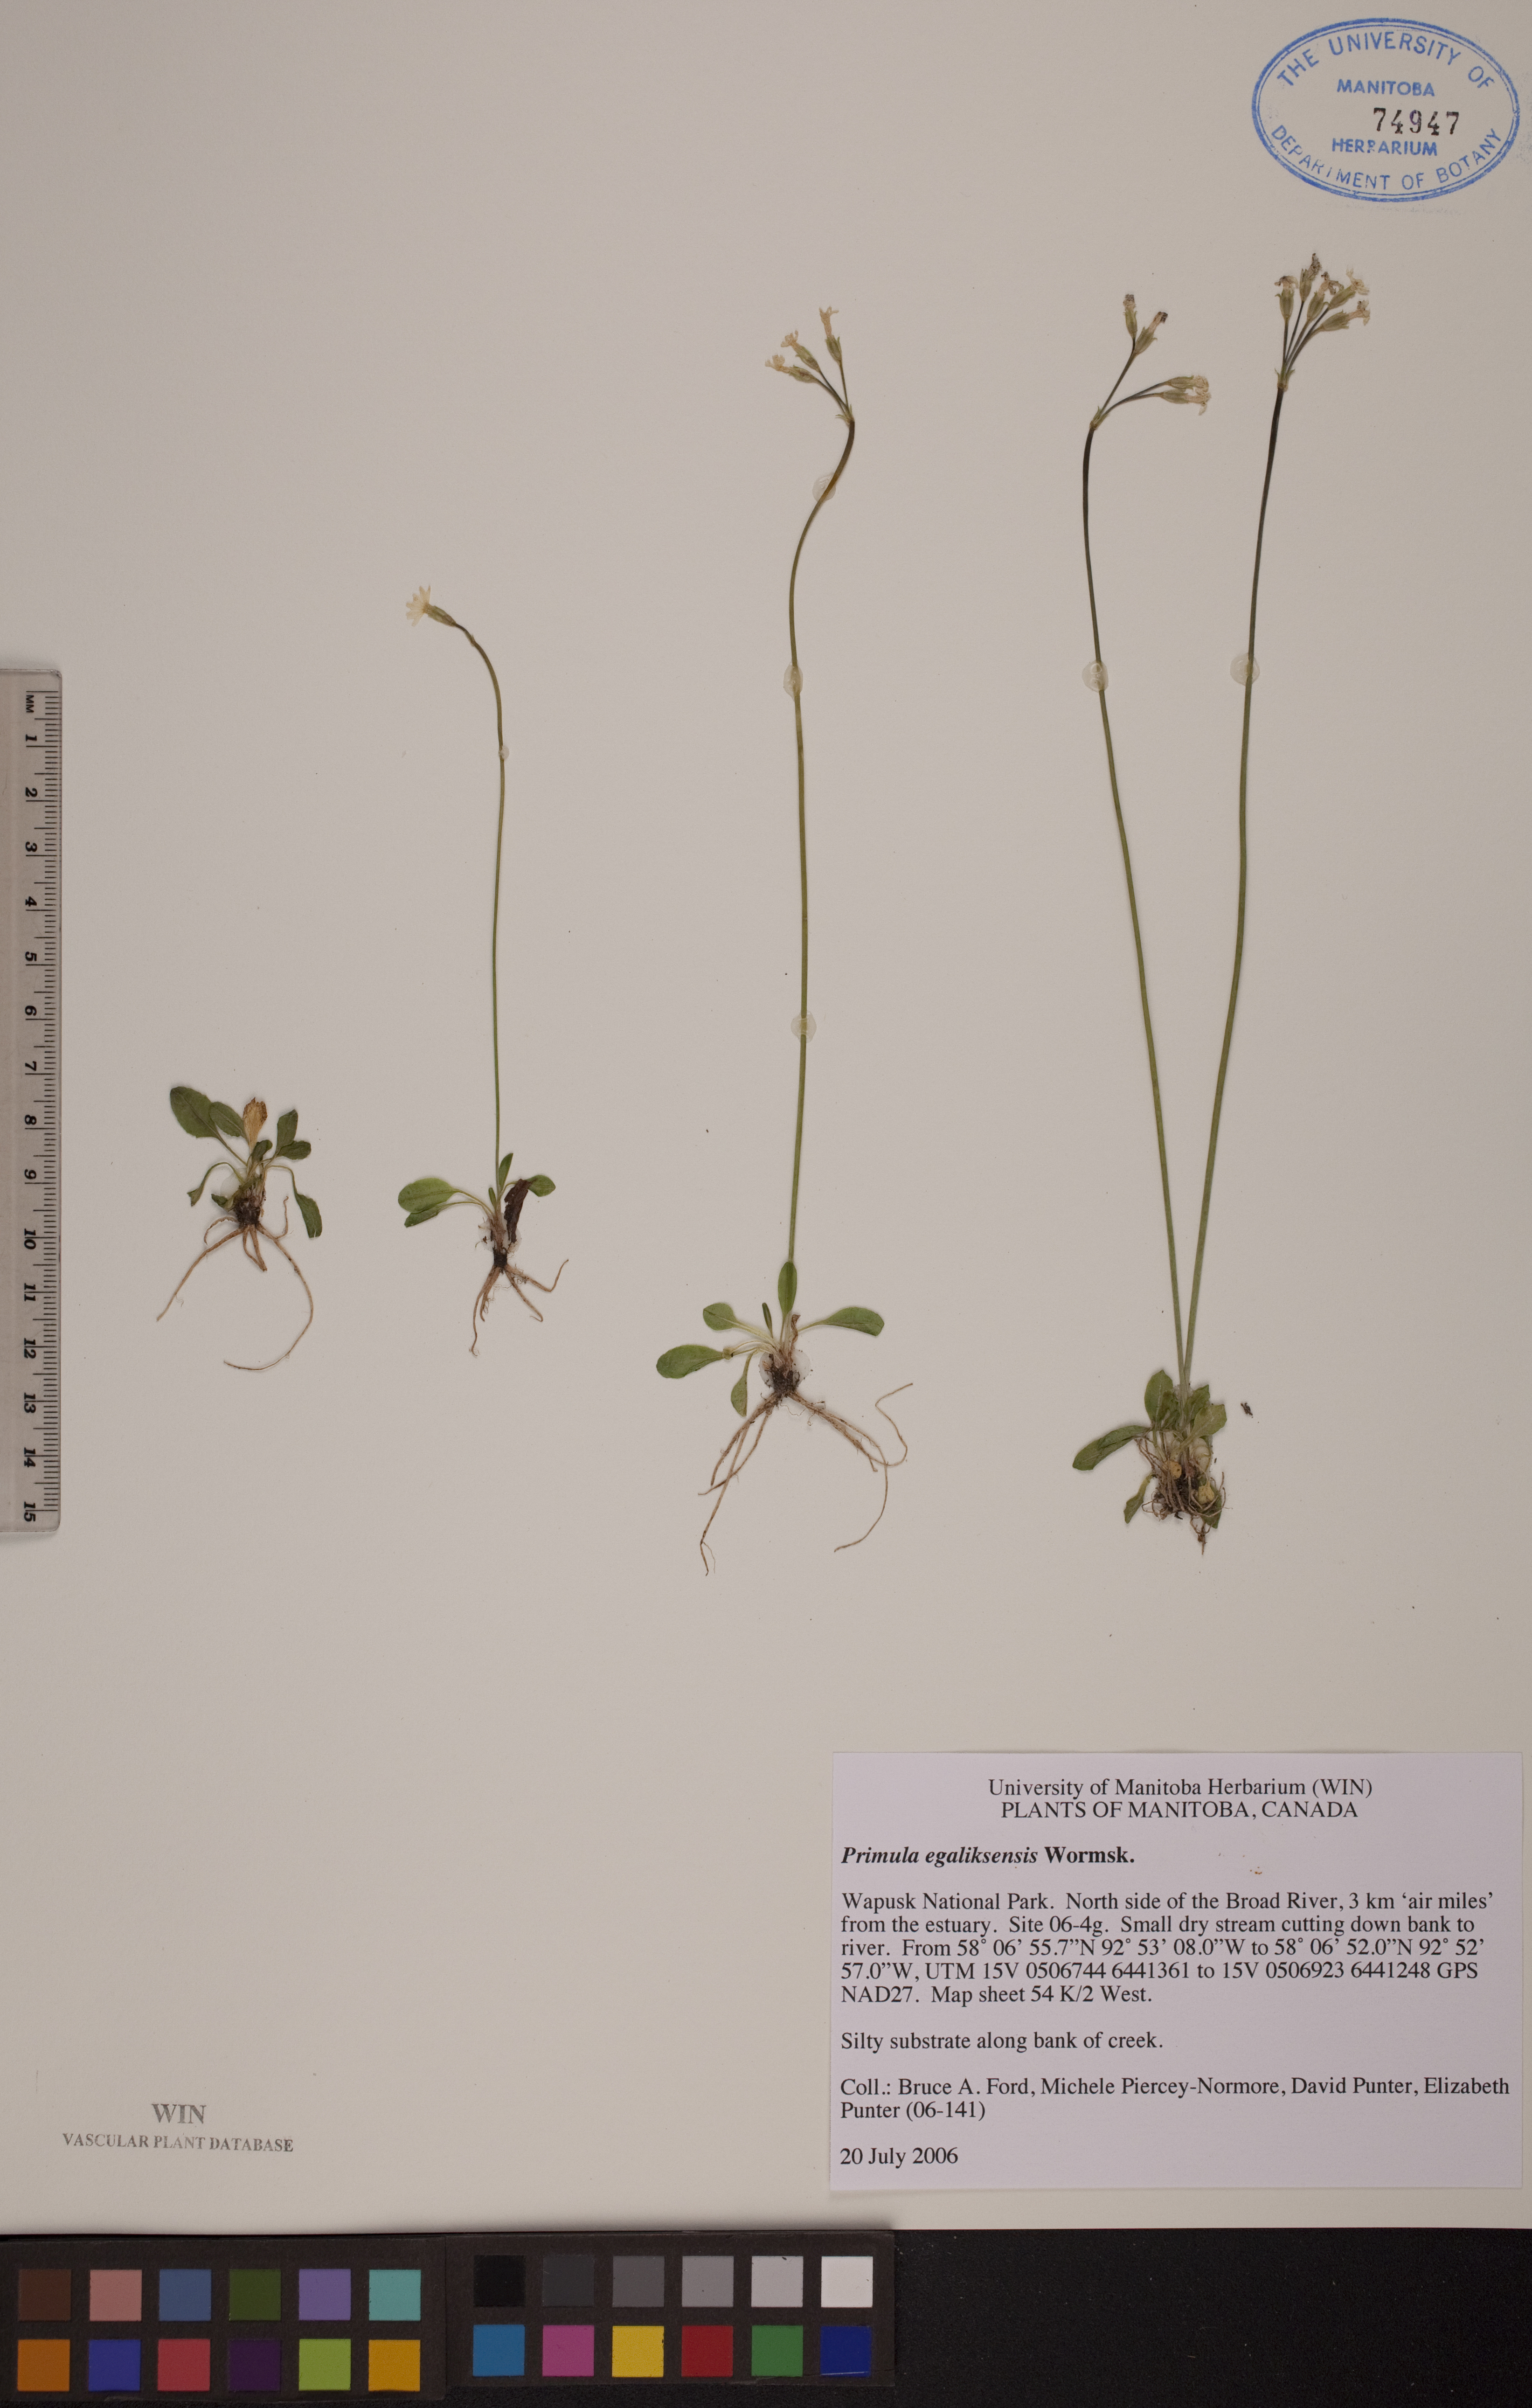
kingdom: Plantae
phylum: Tracheophyta
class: Magnoliopsida
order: Ericales
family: Primulaceae
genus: Primula
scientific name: Primula egaliksensis
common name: Greenland primrose
